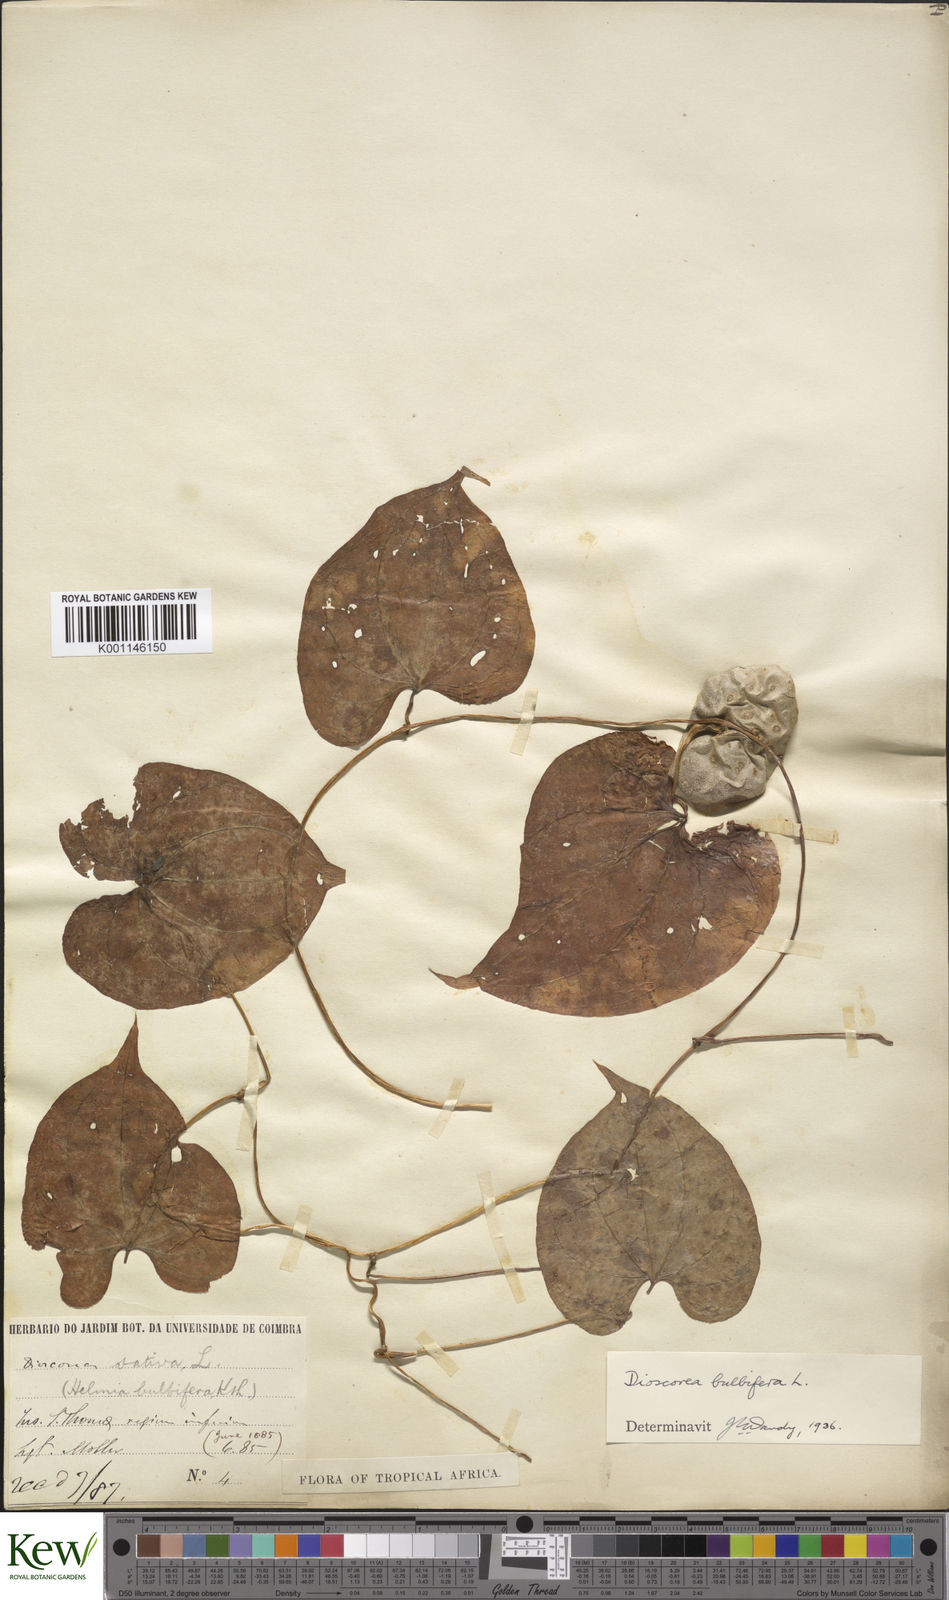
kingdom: Plantae
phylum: Tracheophyta
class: Liliopsida
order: Dioscoreales
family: Dioscoreaceae
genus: Dioscorea
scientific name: Dioscorea bulbifera
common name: Air yam
